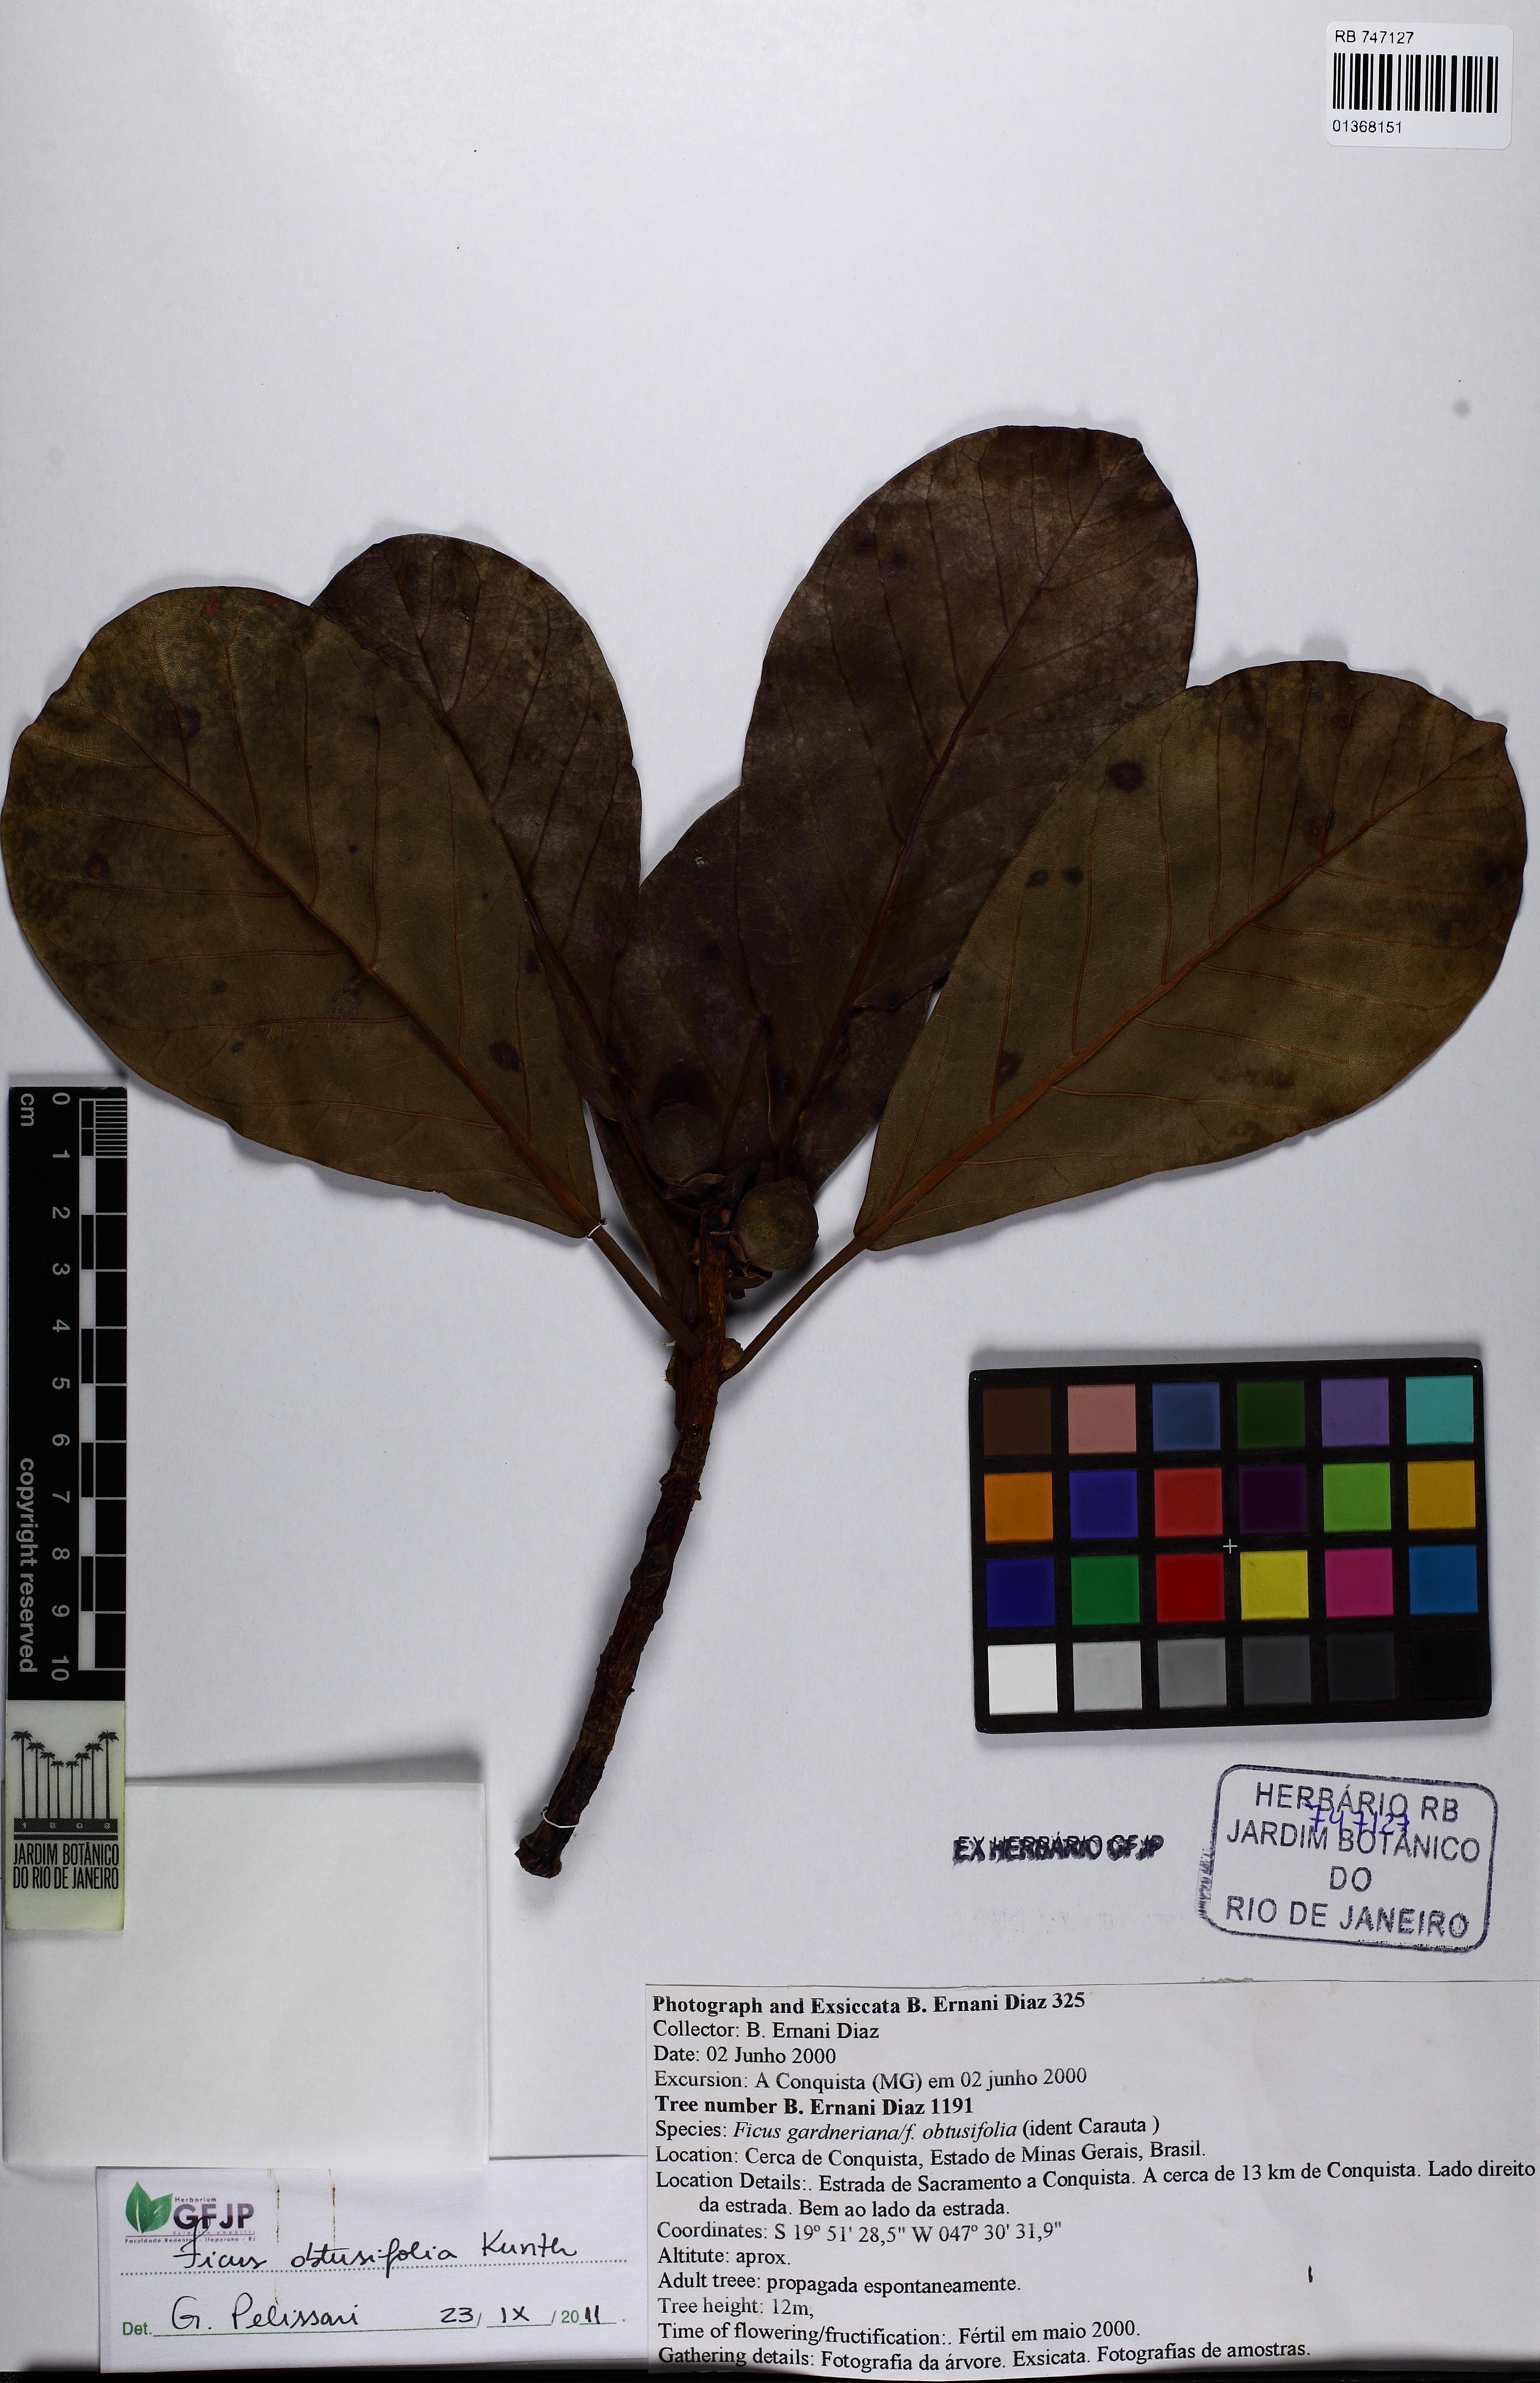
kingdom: Plantae
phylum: Tracheophyta
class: Magnoliopsida
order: Rosales
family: Moraceae
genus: Ficus
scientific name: Ficus obtusifolia
